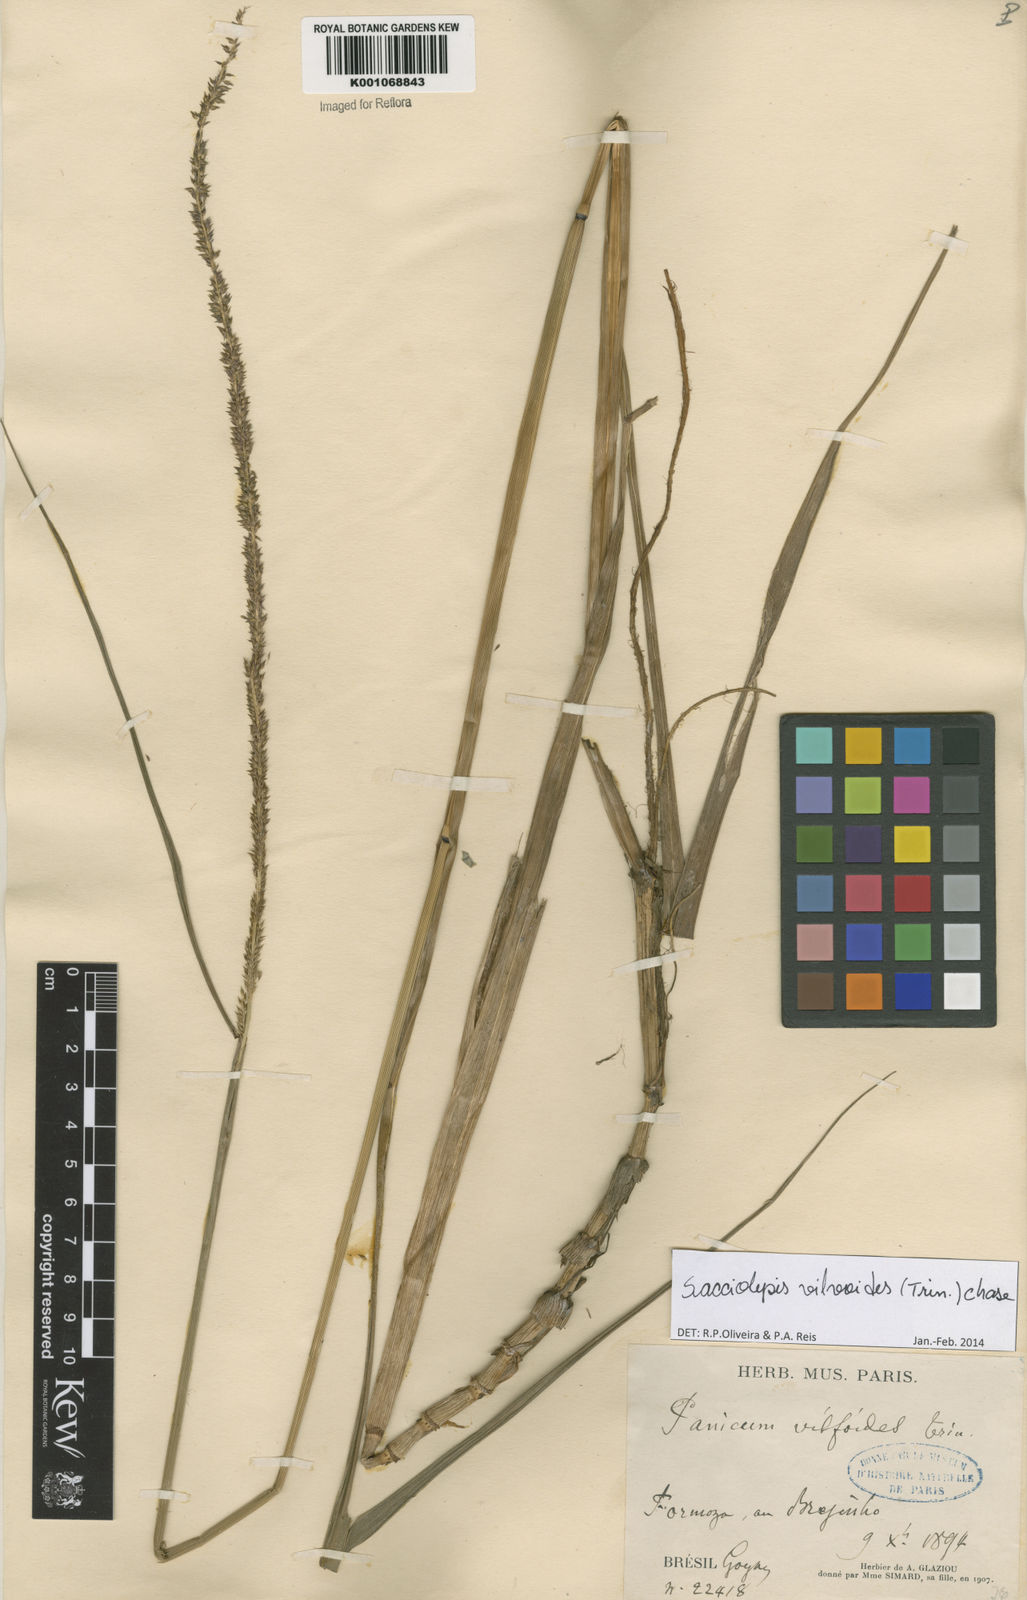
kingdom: Plantae
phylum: Tracheophyta
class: Liliopsida
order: Poales
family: Poaceae
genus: Sacciolepis
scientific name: Sacciolepis vilvoides
